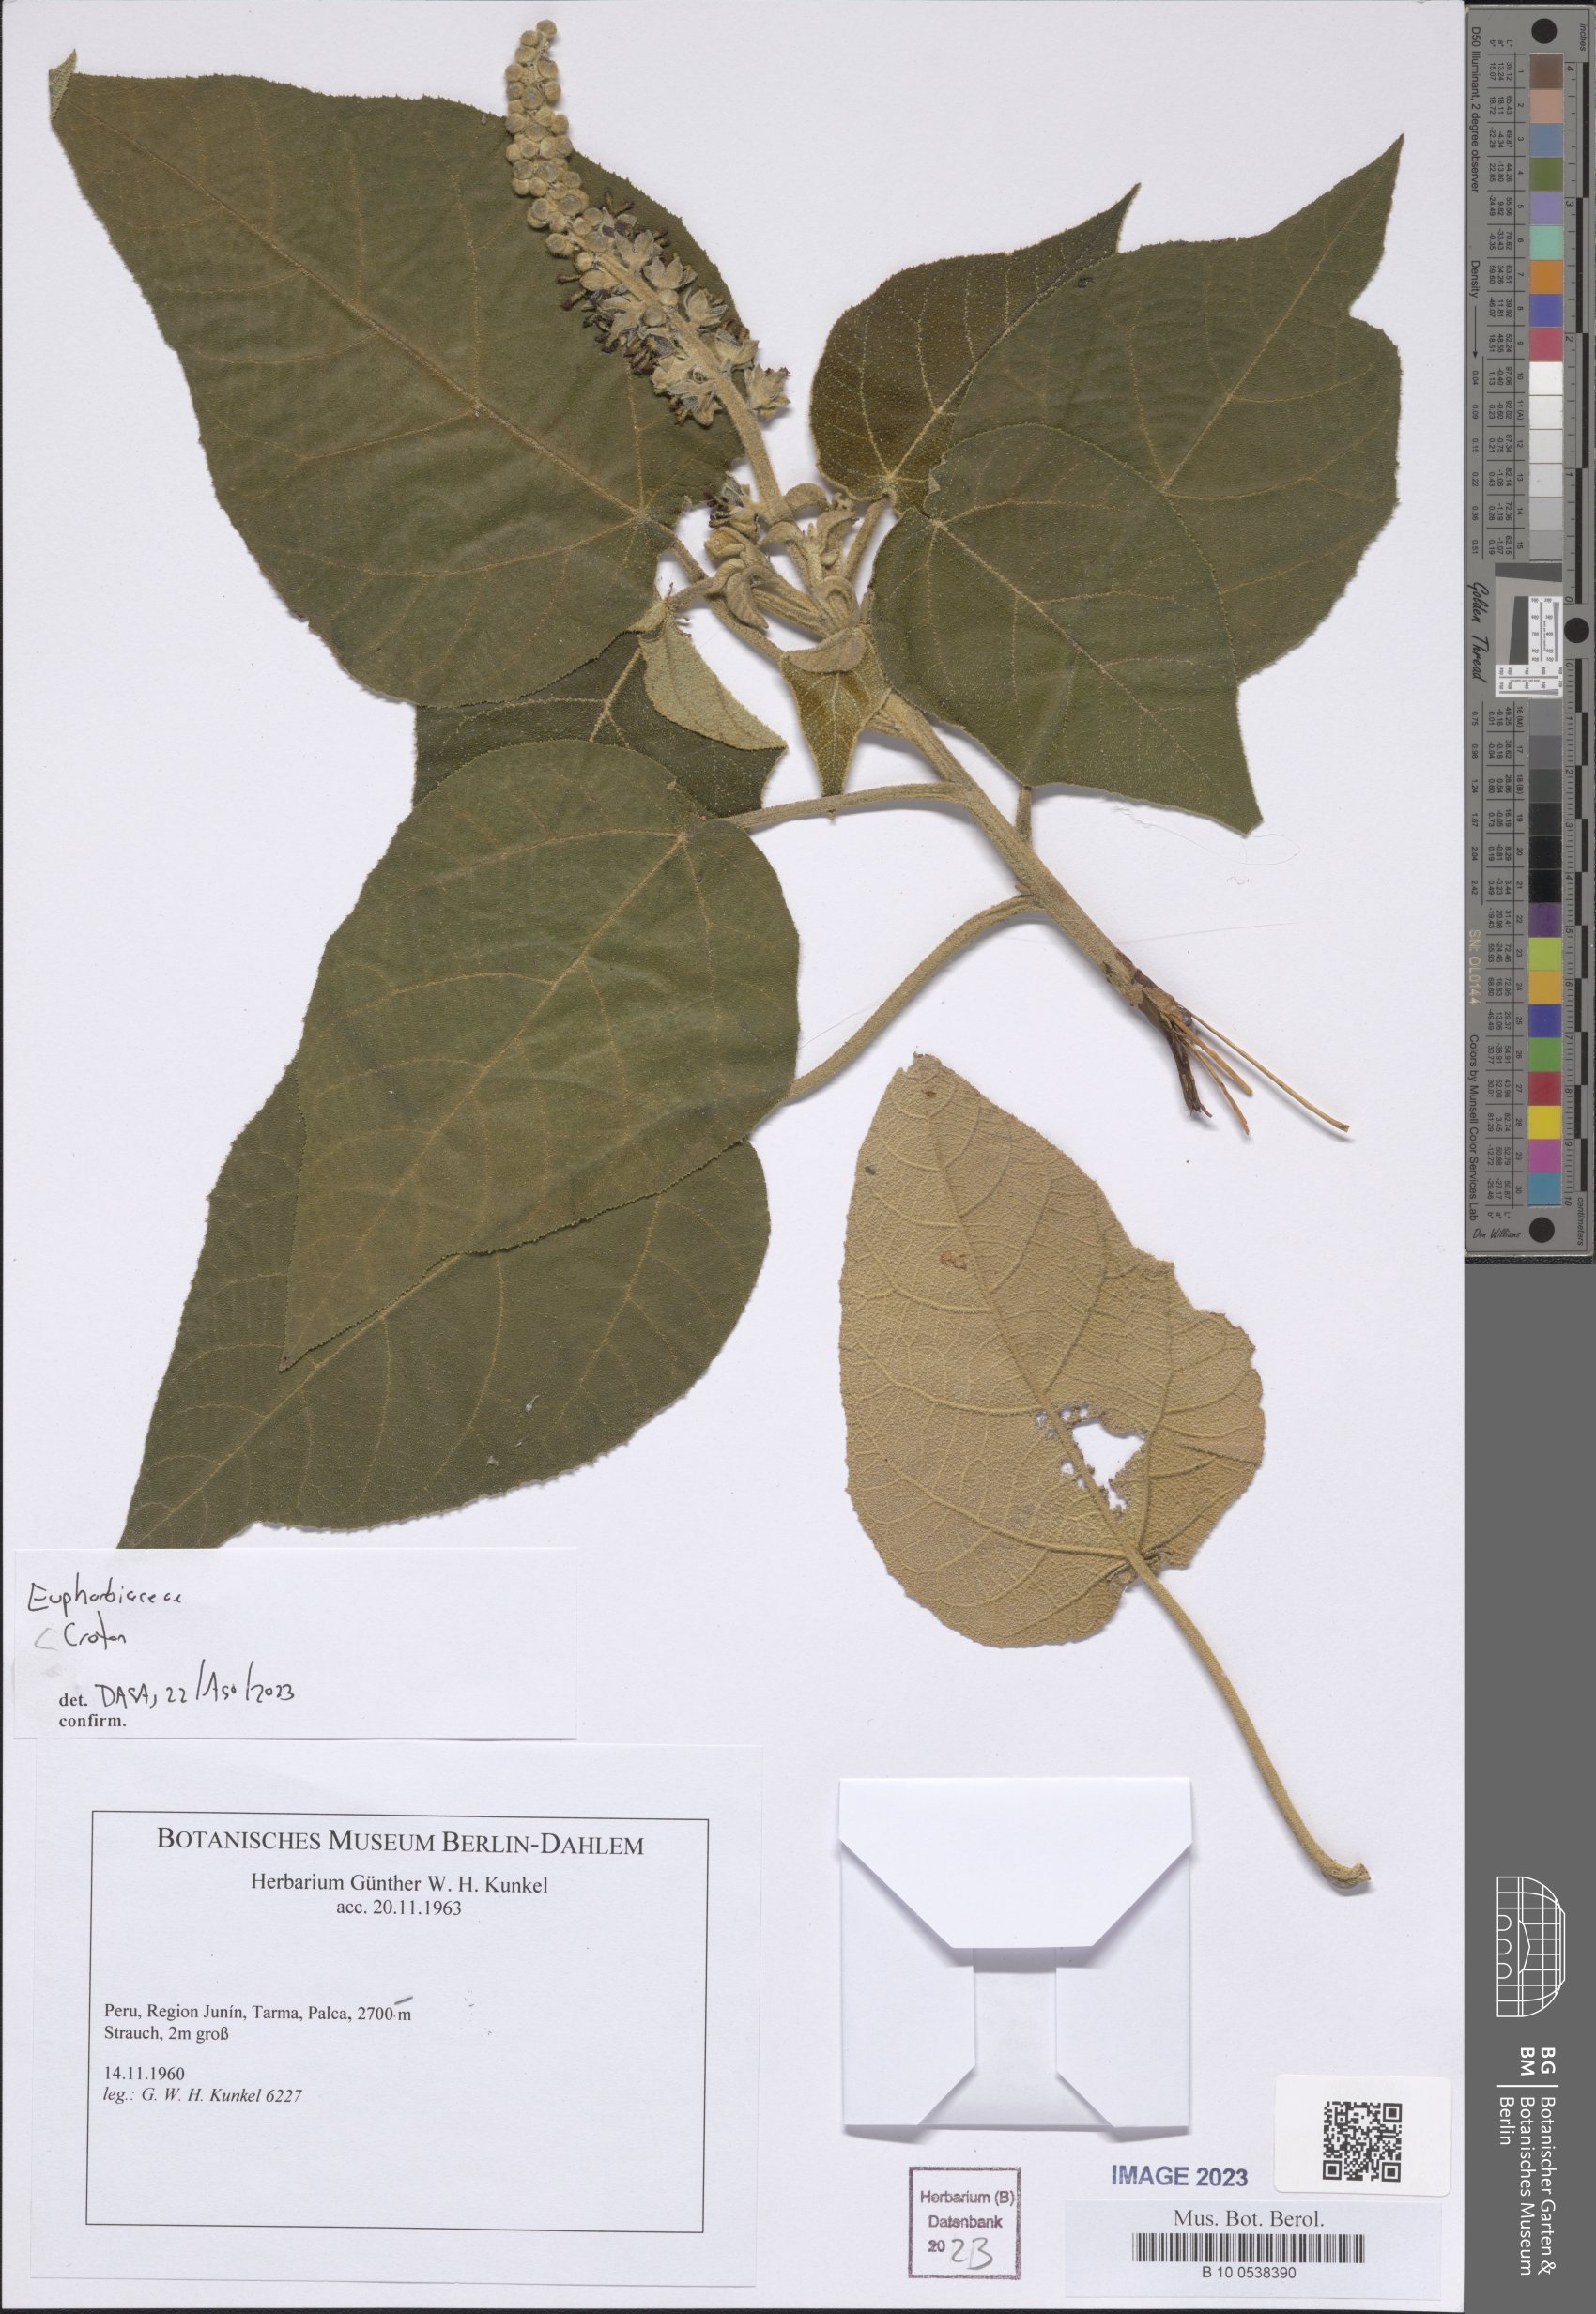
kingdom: Plantae
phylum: Tracheophyta
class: Magnoliopsida
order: Malpighiales
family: Euphorbiaceae
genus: Croton
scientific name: Croton
